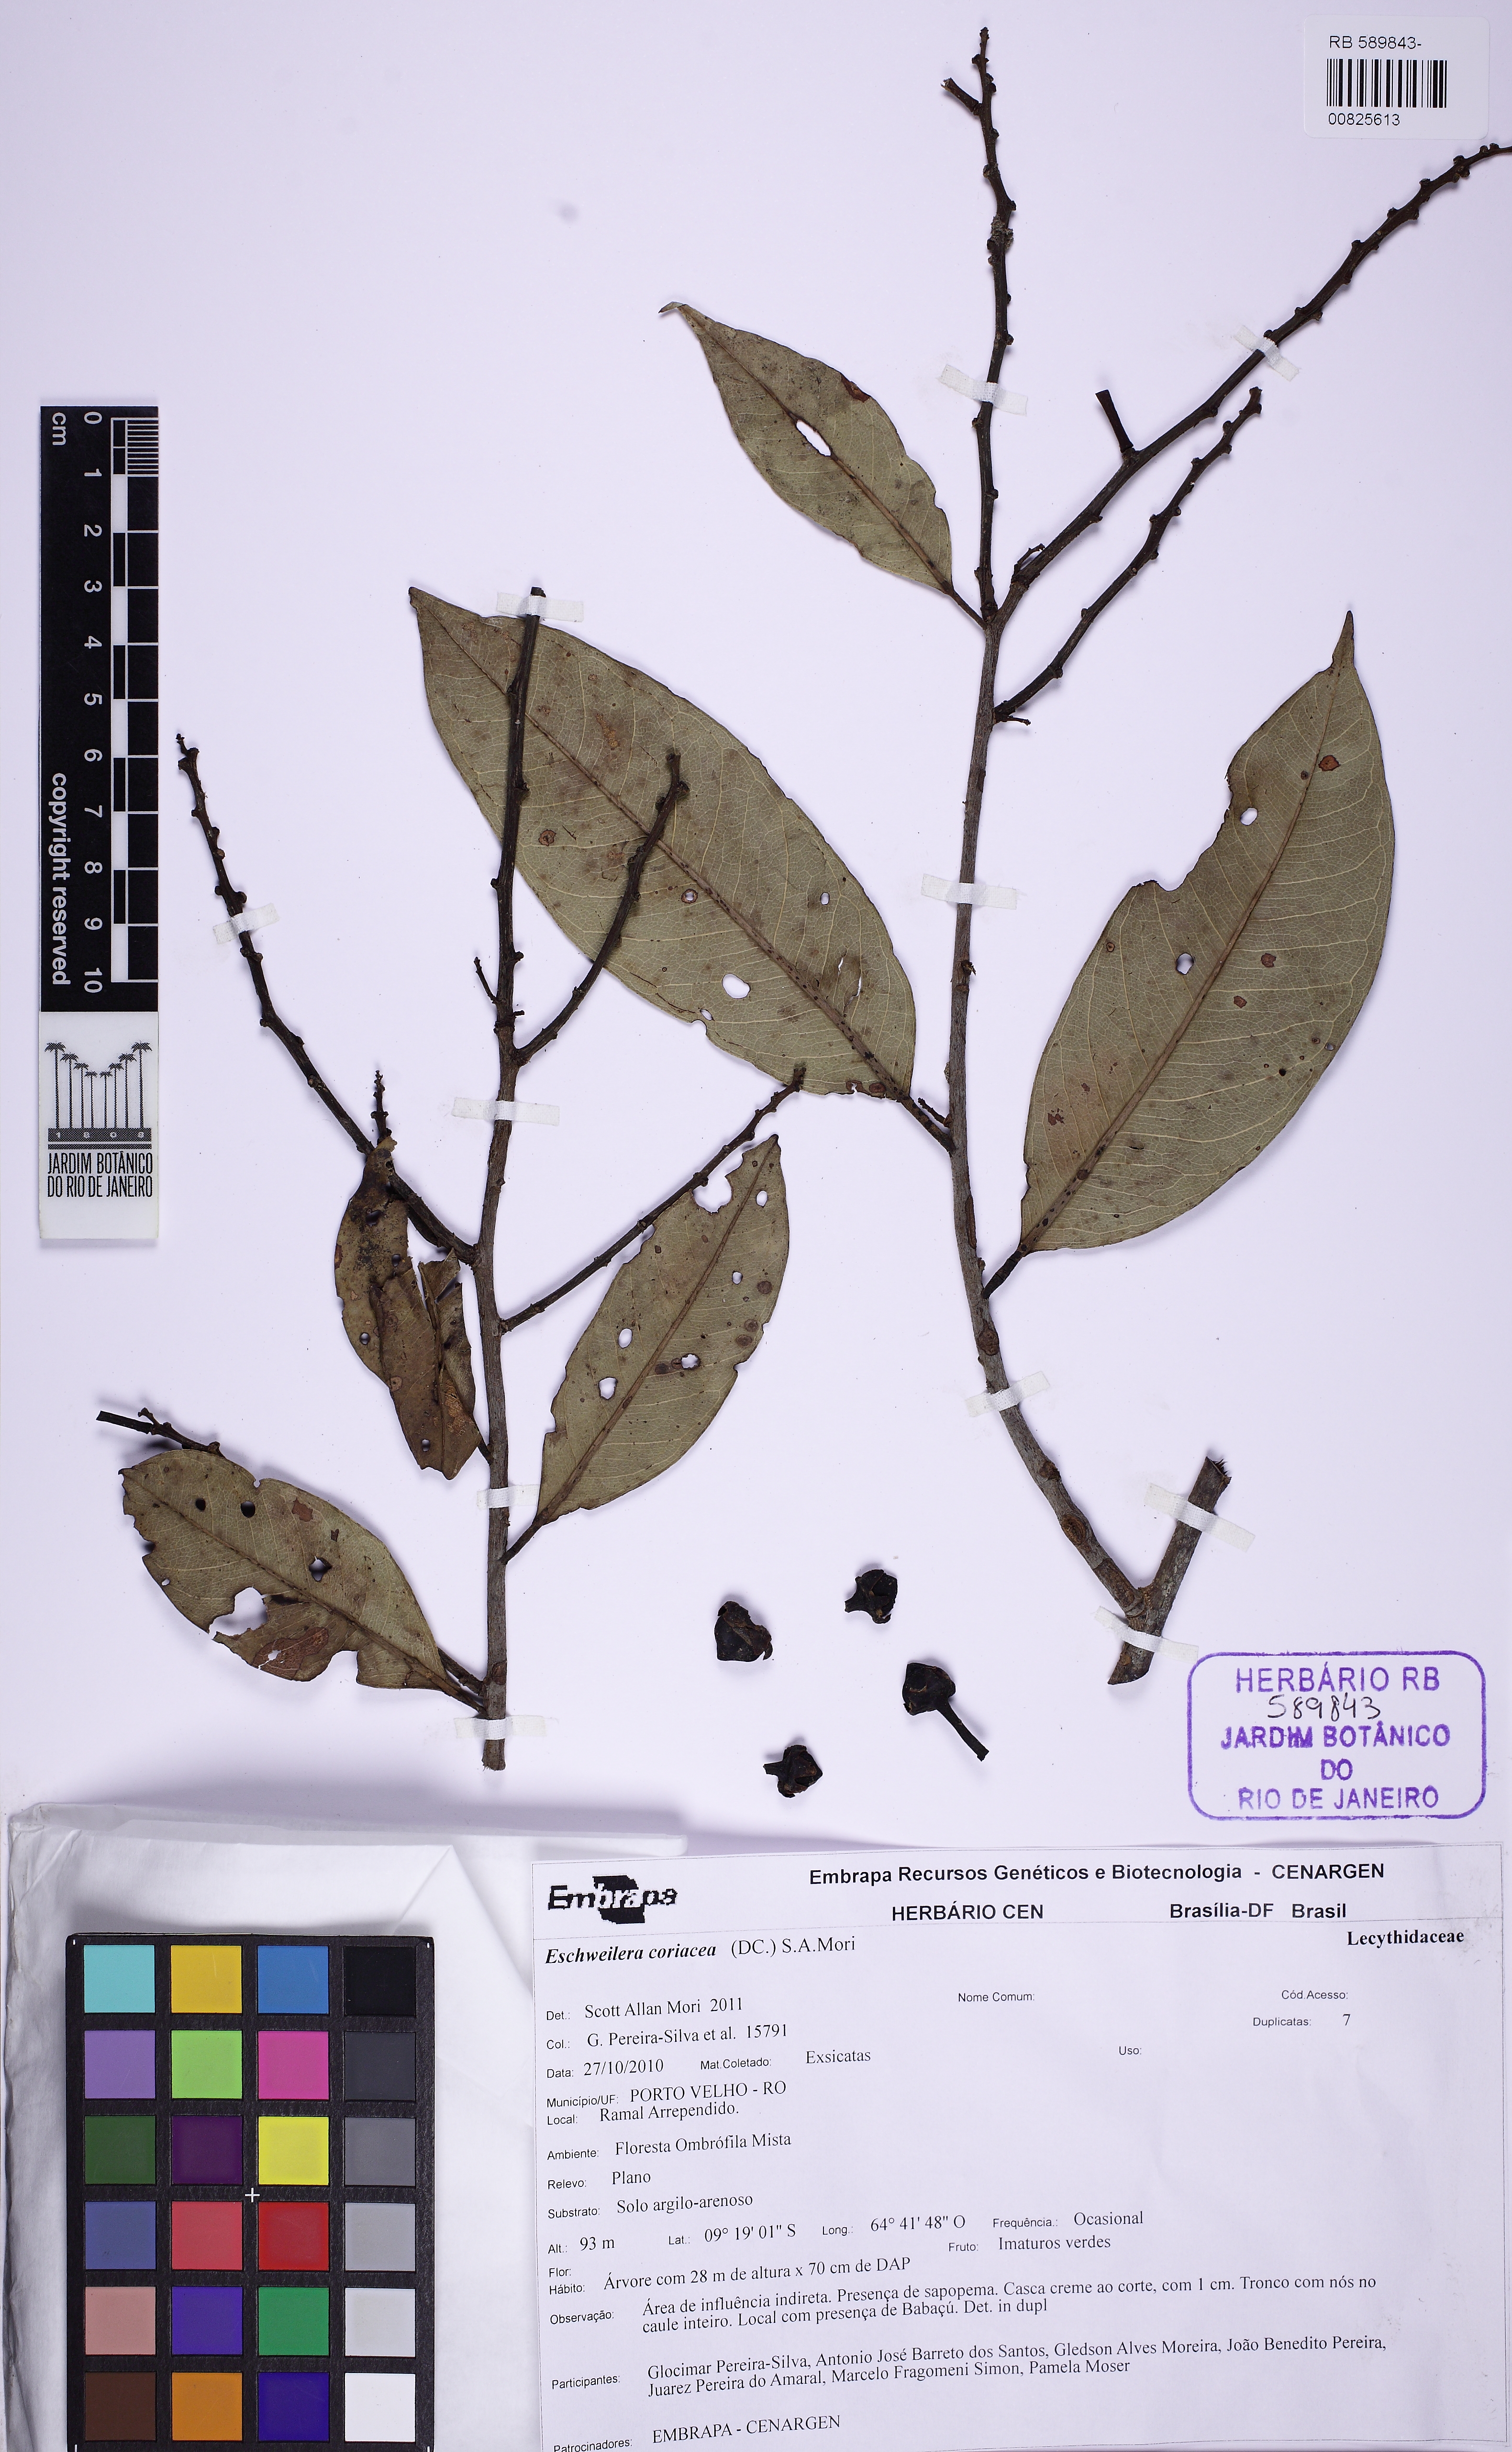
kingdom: Plantae
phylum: Tracheophyta
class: Magnoliopsida
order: Ericales
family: Lecythidaceae
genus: Eschweilera
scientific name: Eschweilera coriacea
